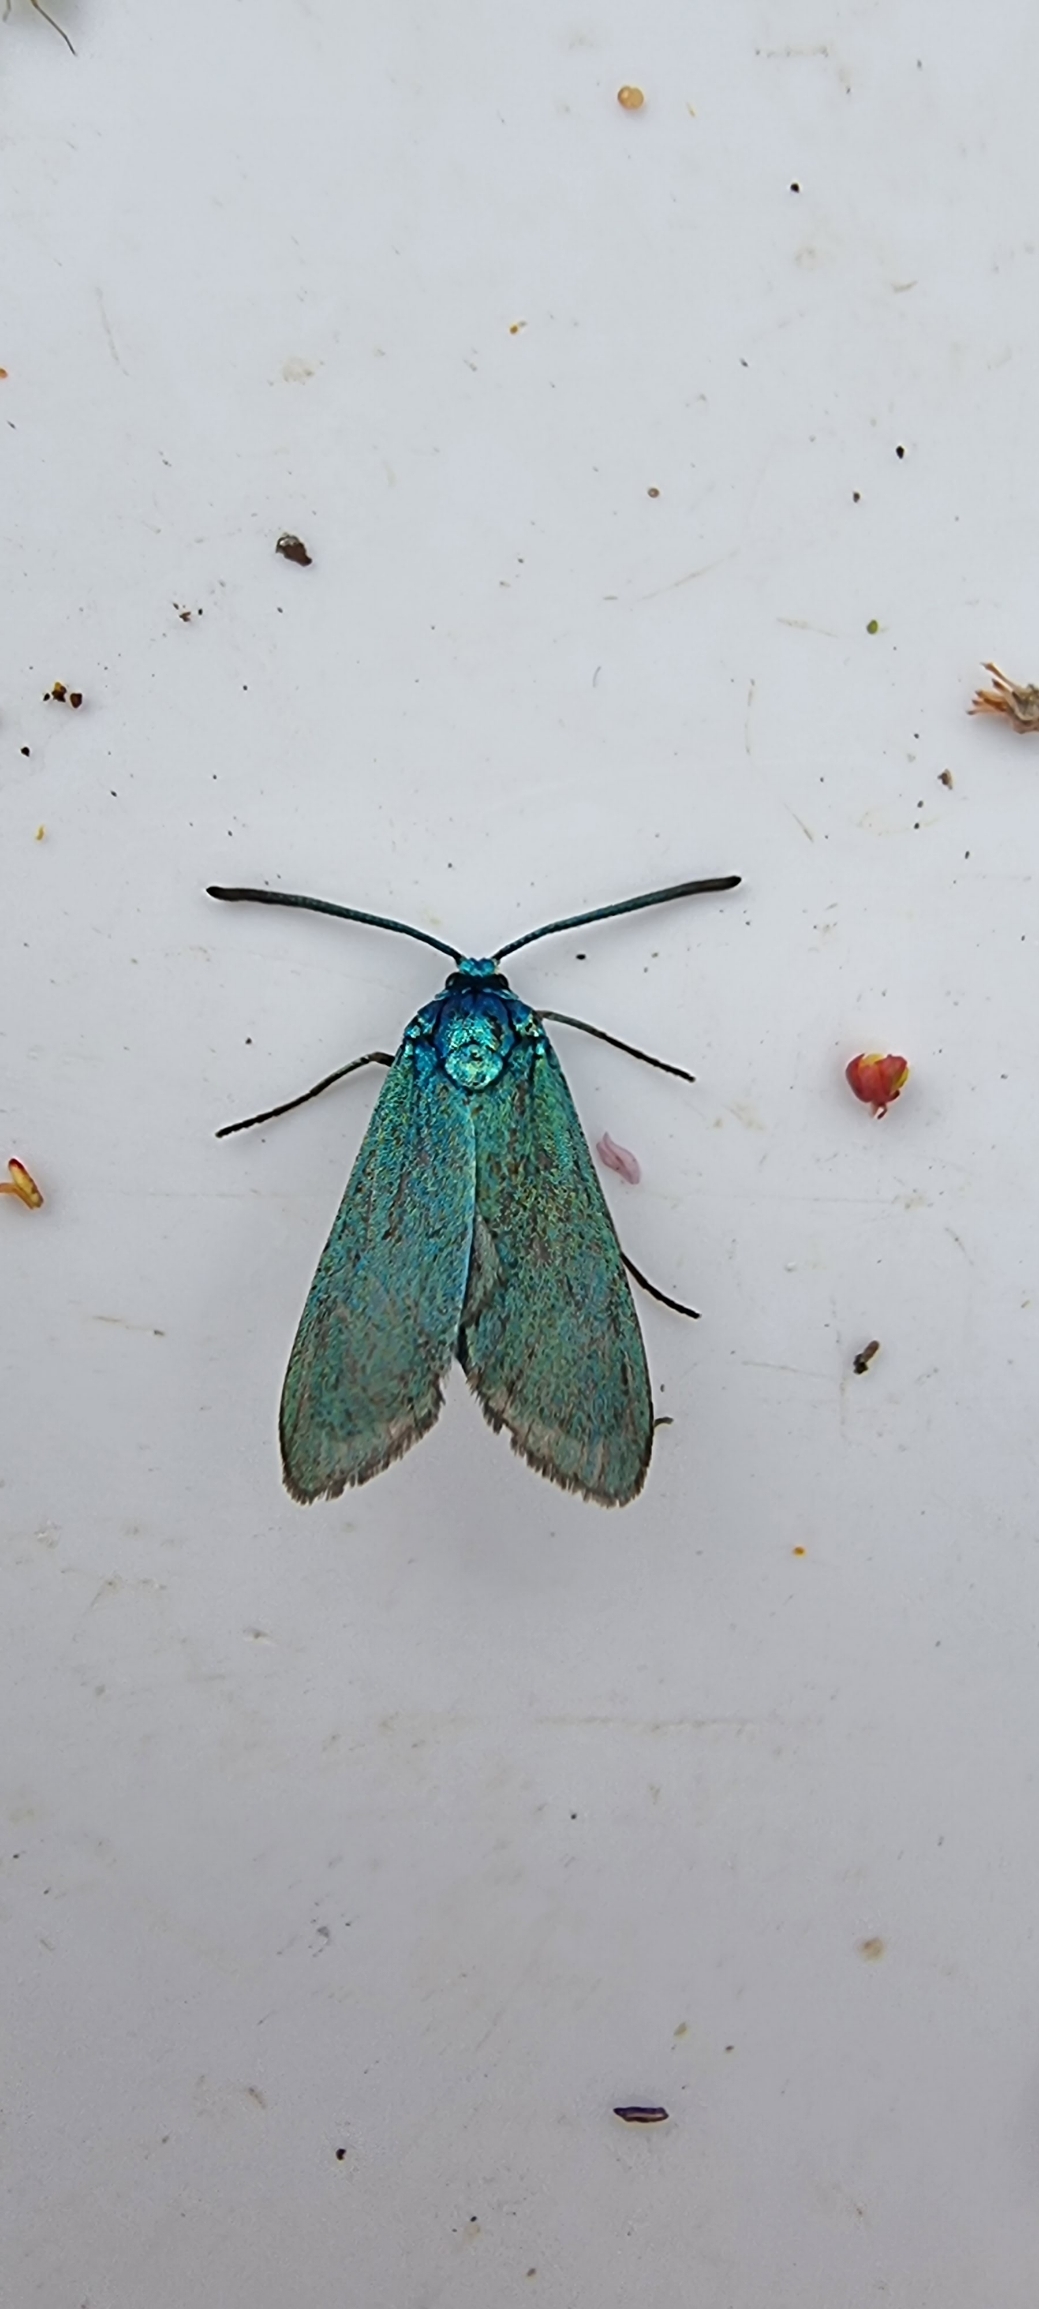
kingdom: Animalia
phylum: Arthropoda
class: Insecta
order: Lepidoptera
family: Zygaenidae
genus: Adscita
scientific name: Adscita statices
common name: Metalvinge
